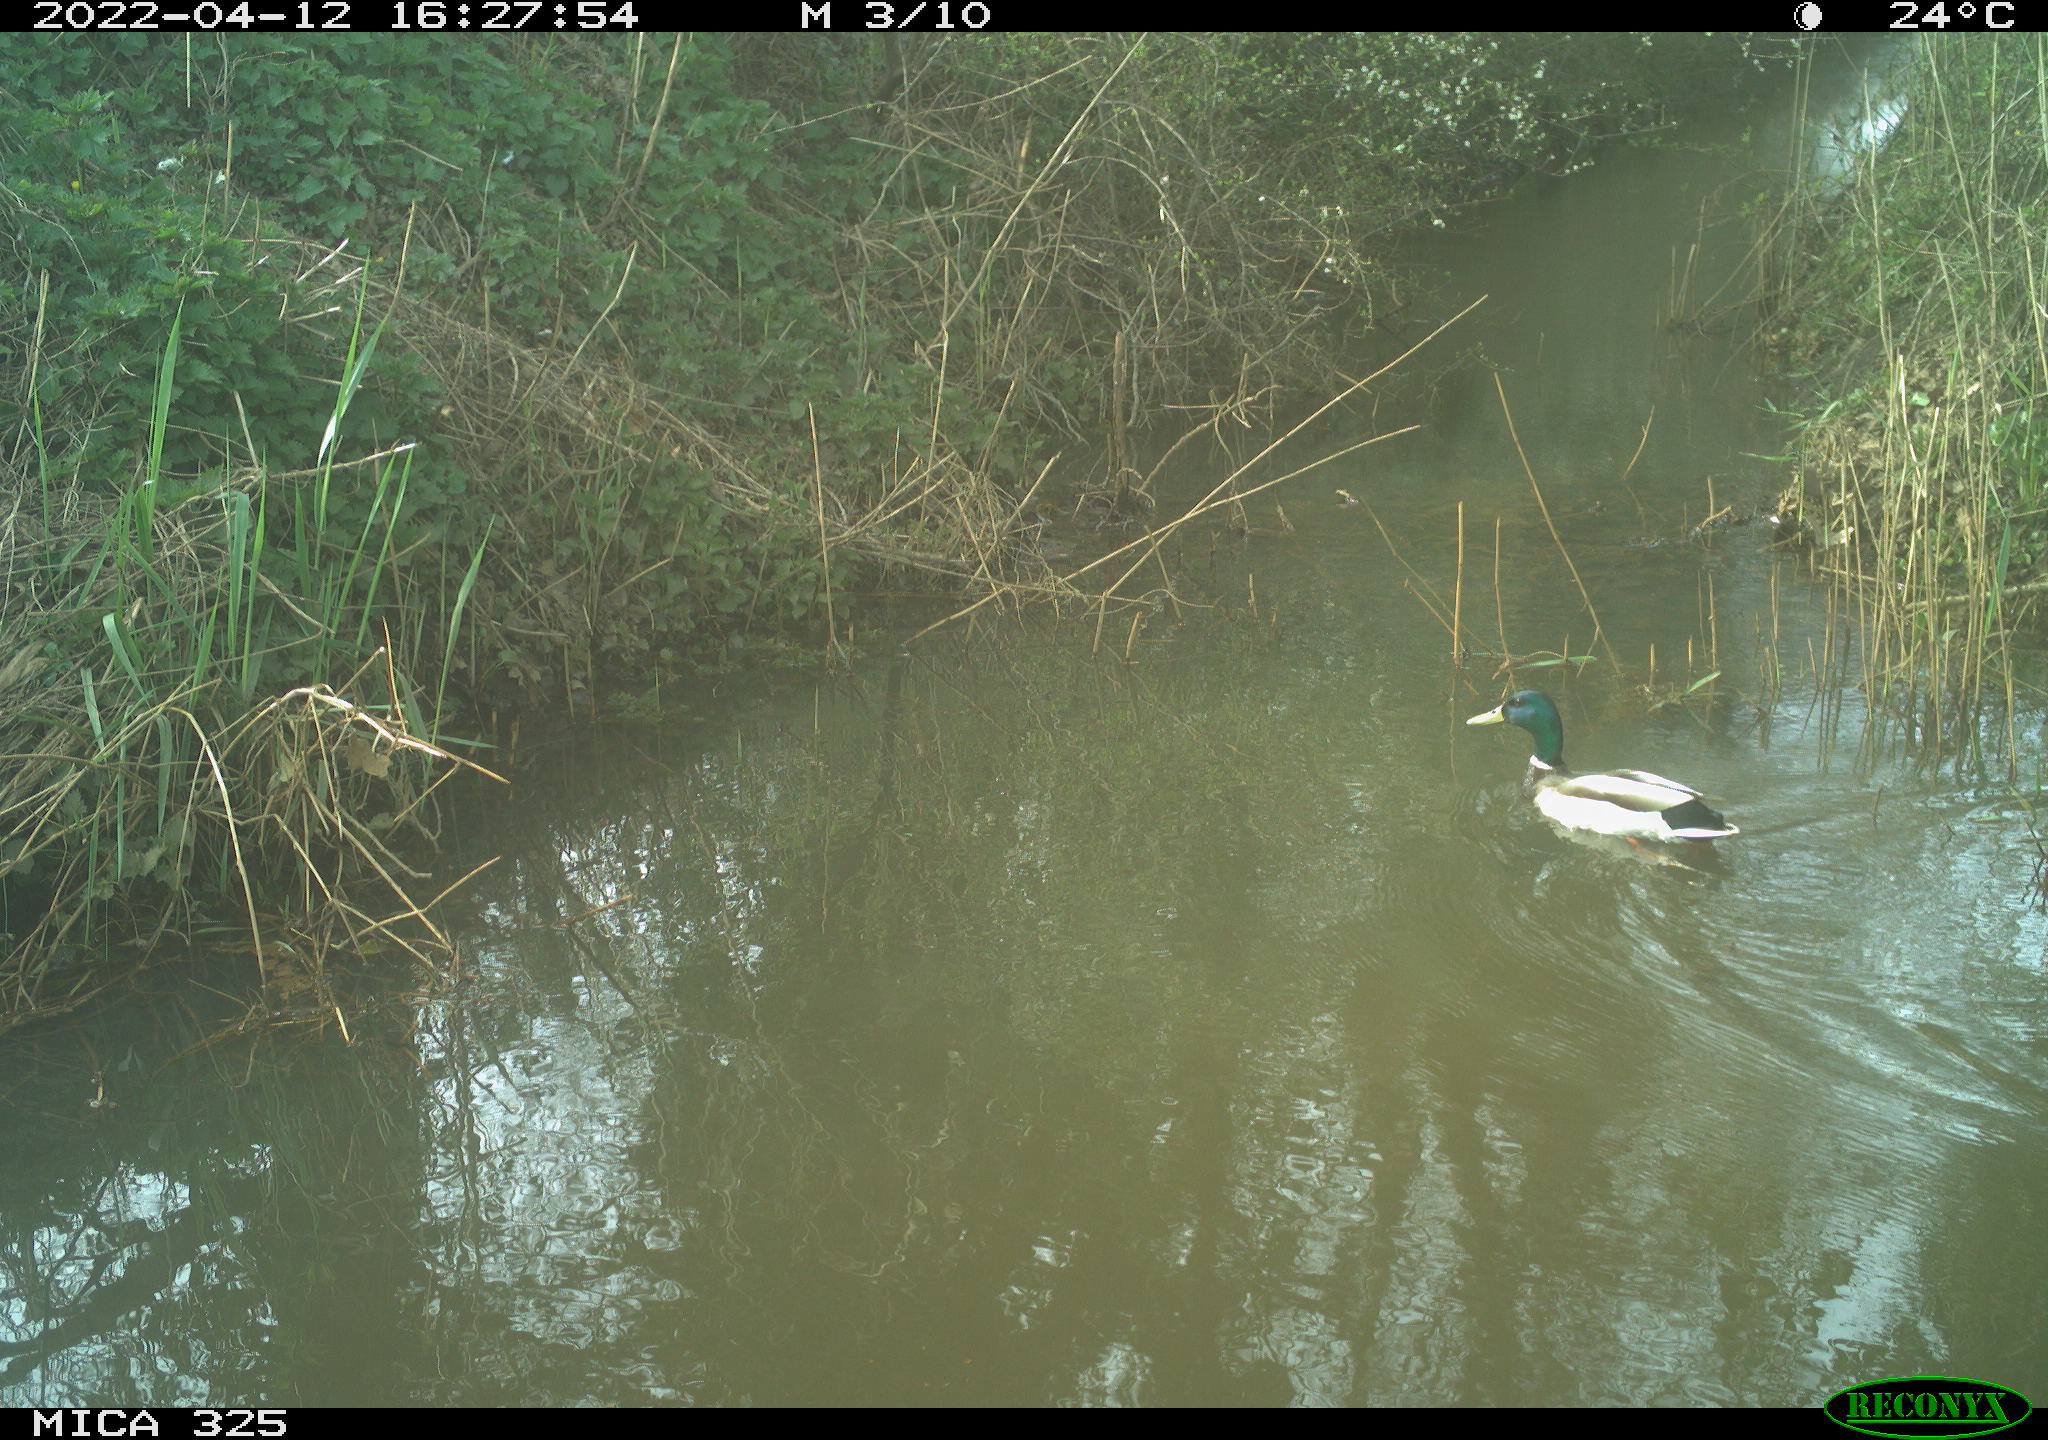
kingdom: Animalia
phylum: Chordata
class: Aves
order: Anseriformes
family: Anatidae
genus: Anas
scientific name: Anas platyrhynchos
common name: Mallard
